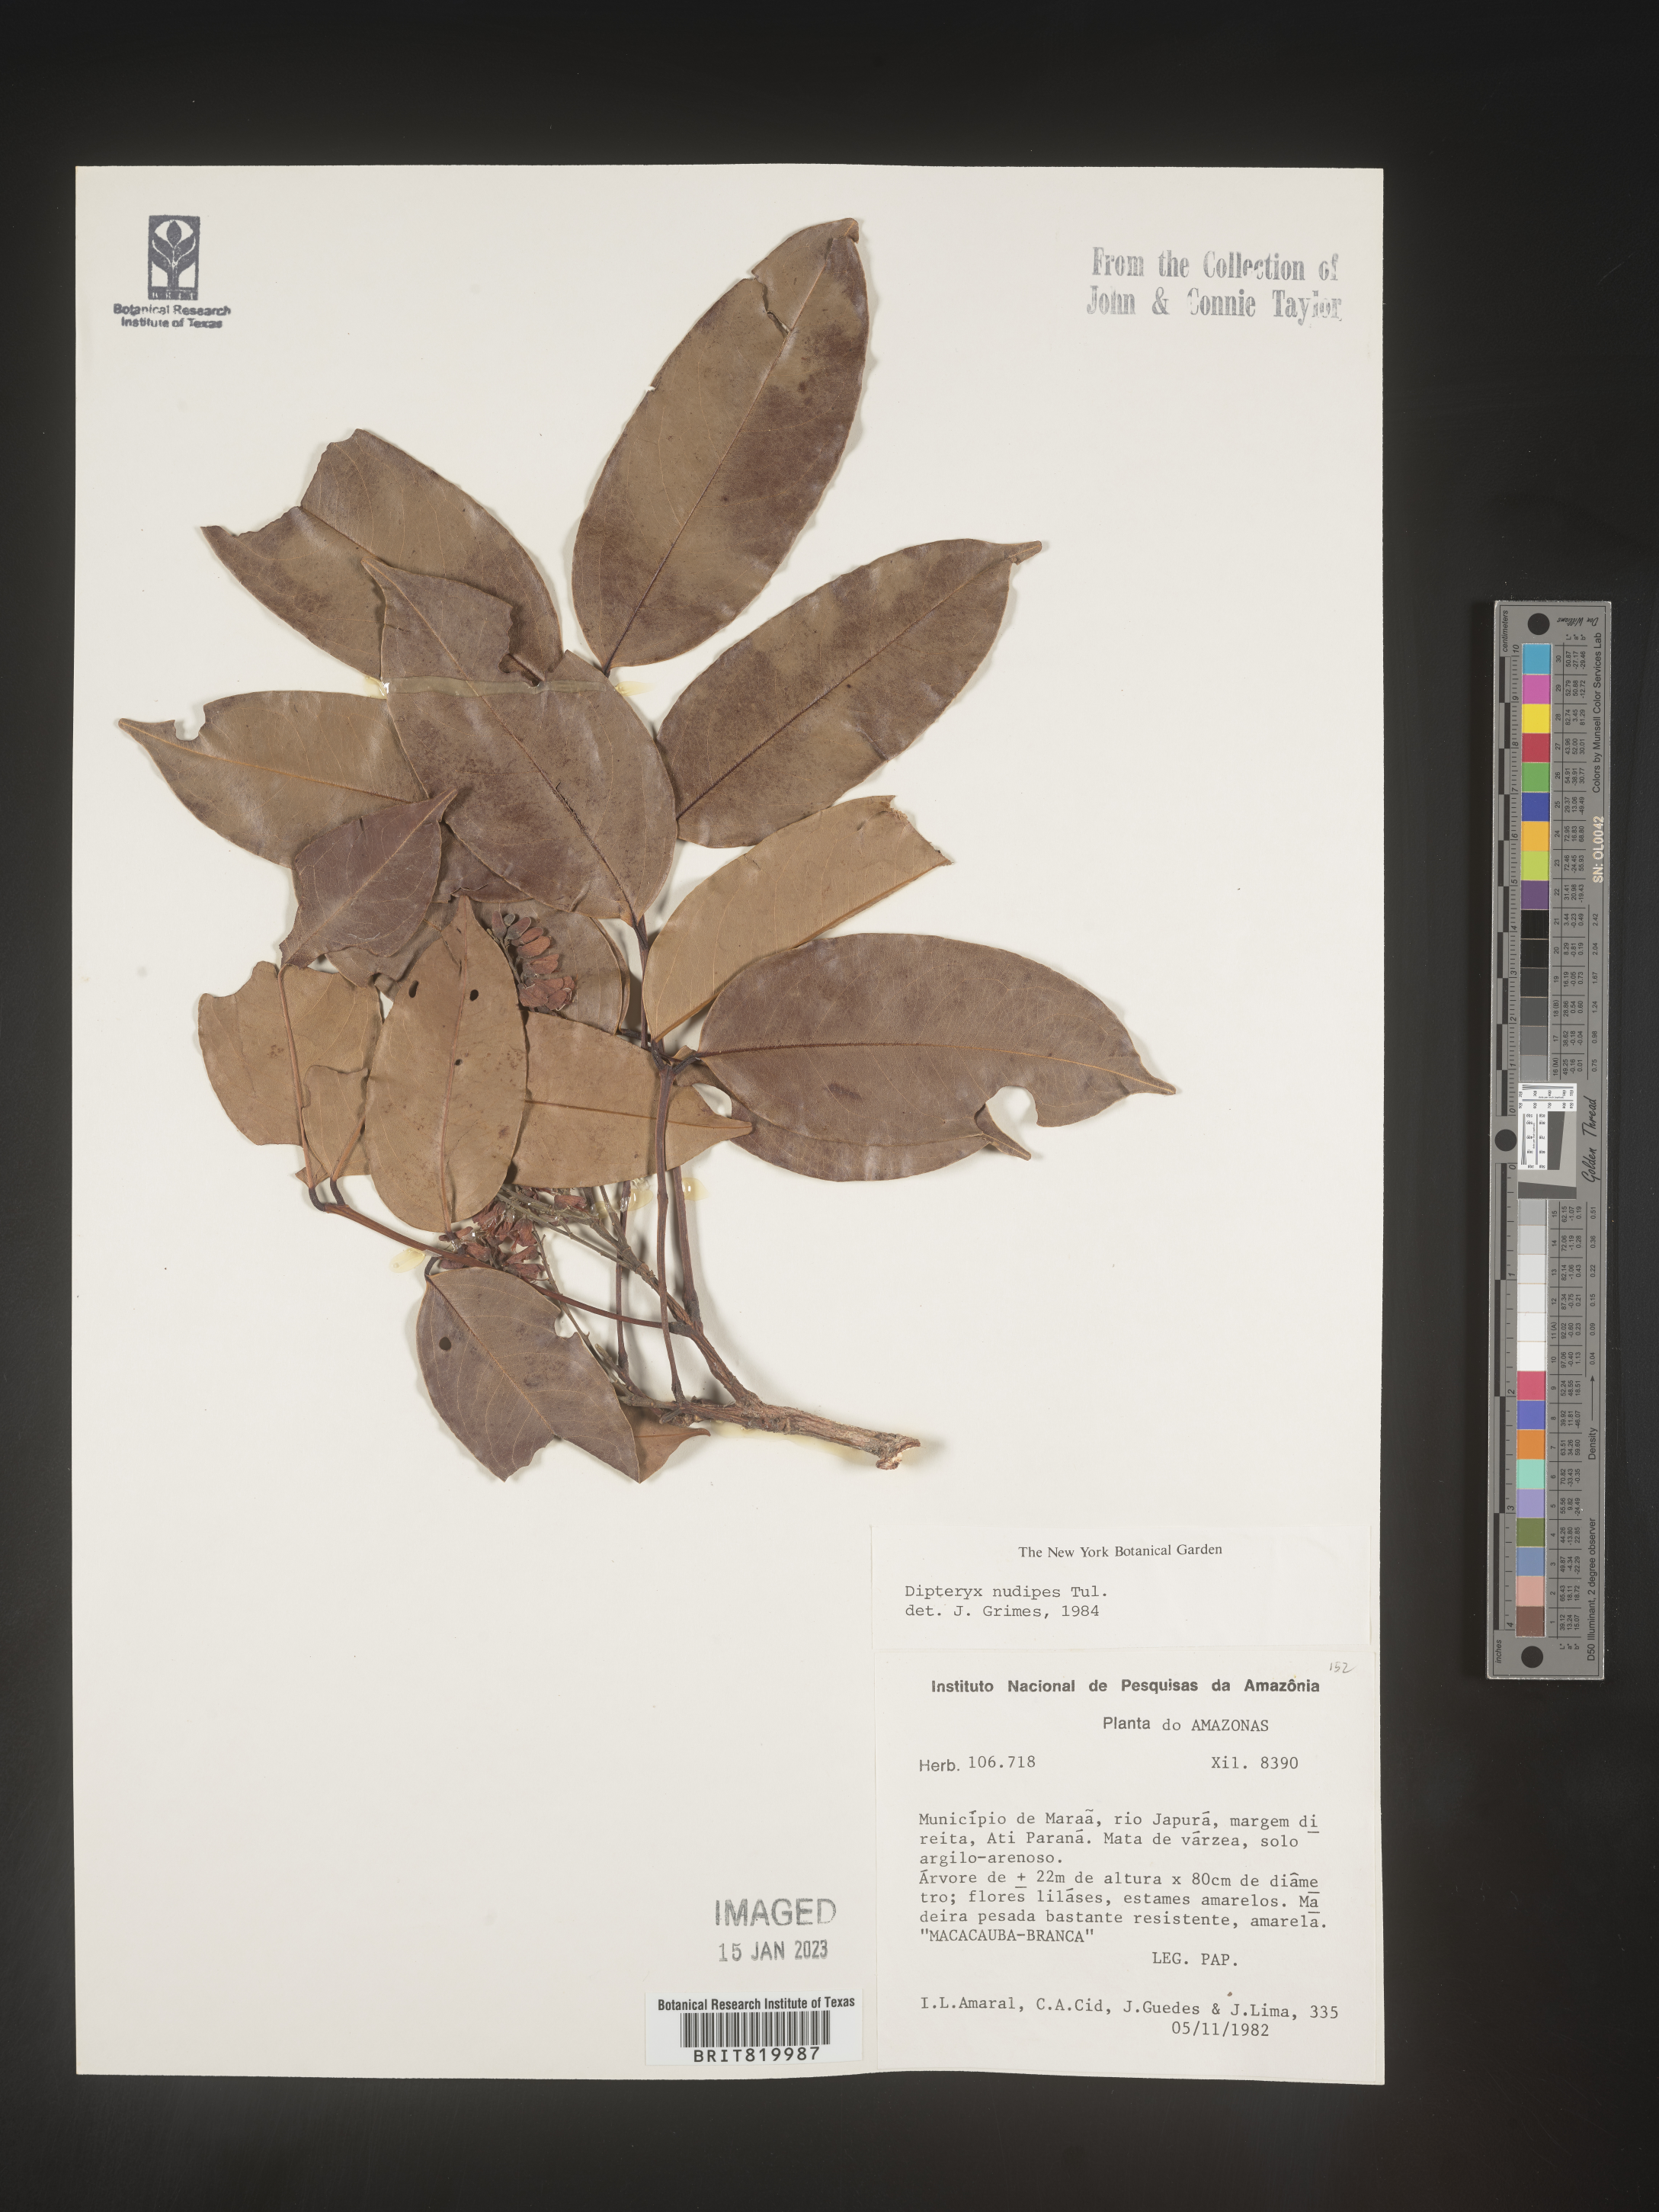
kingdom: Plantae
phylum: Tracheophyta
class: Magnoliopsida
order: Fabales
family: Fabaceae
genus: Dipteryx
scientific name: Dipteryx
